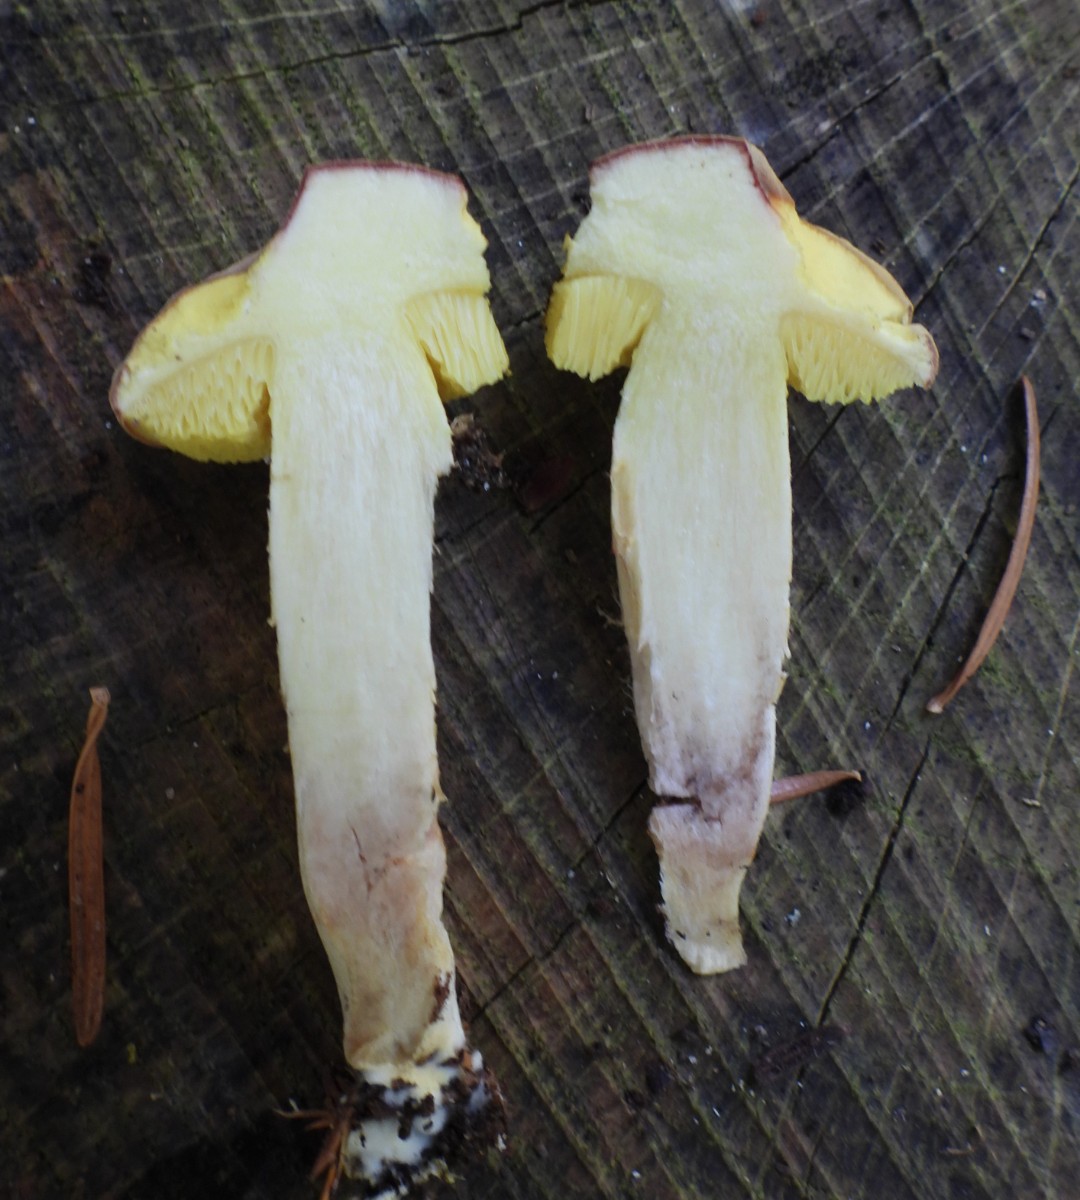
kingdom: Fungi
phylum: Basidiomycota
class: Agaricomycetes
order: Boletales
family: Boletaceae
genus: Xerocomus
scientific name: Xerocomus subtomentosus
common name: filtet rørhat
